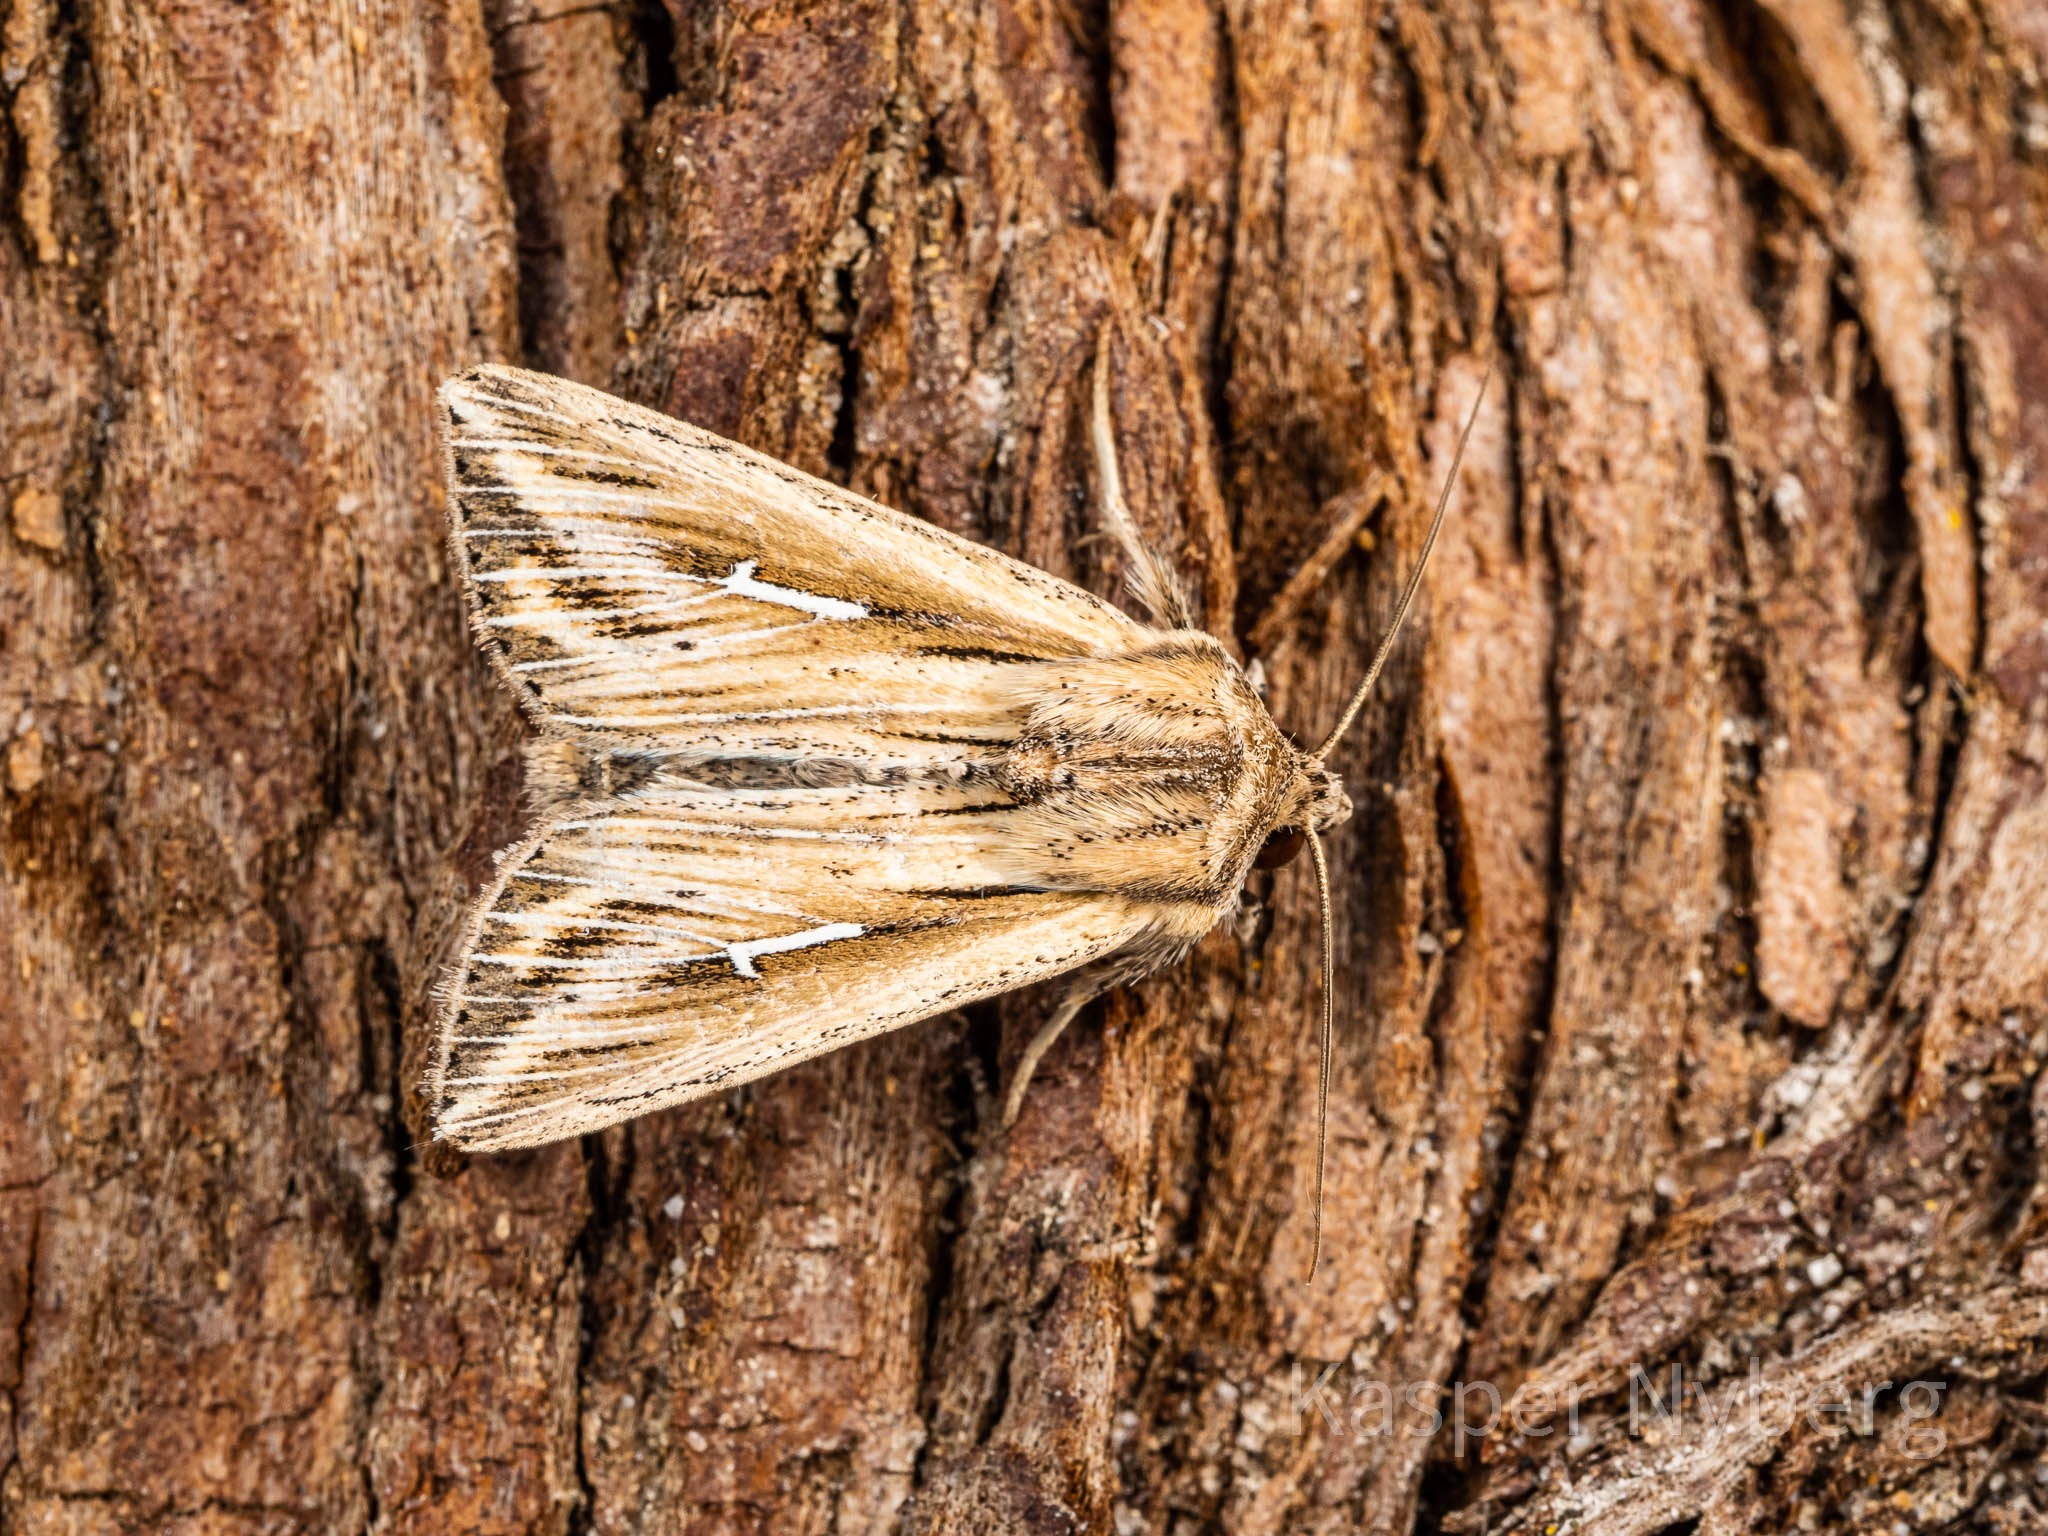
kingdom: Animalia
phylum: Arthropoda
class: Insecta
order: Lepidoptera
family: Noctuidae
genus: Mythimna
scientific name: Mythimna l-album
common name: Det store L
